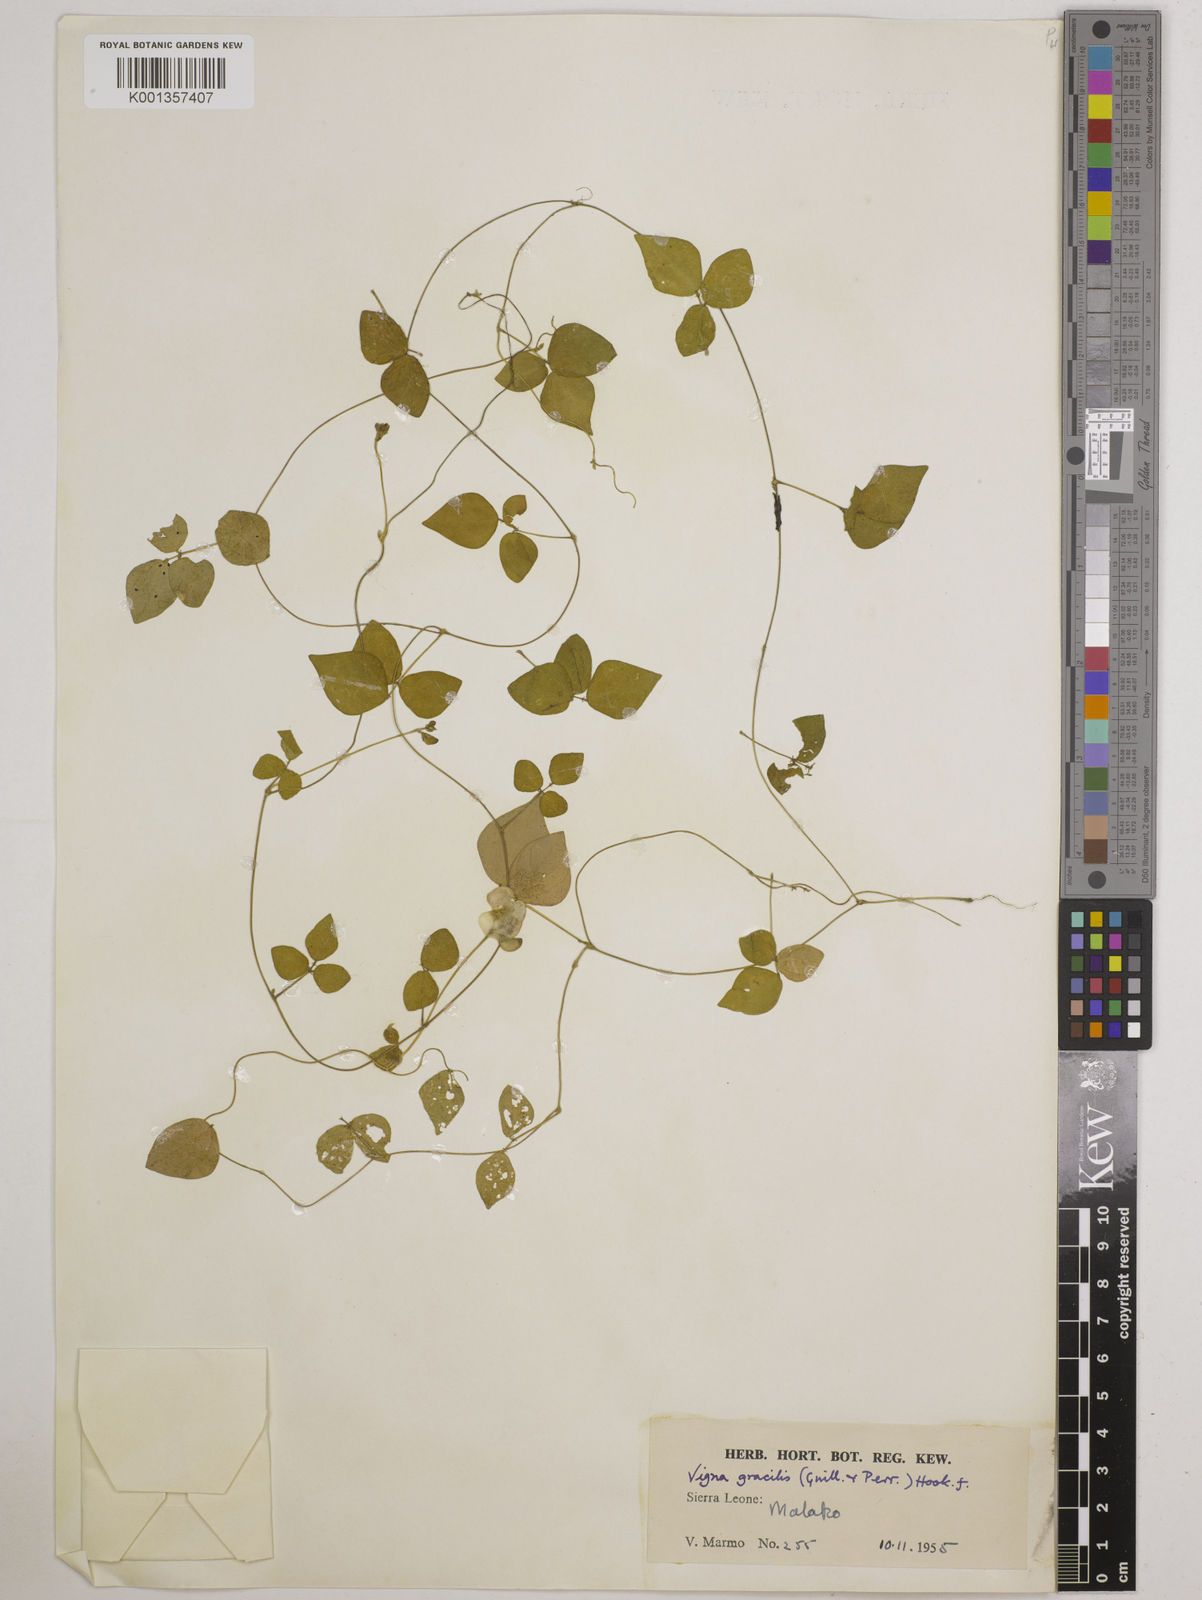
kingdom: Plantae
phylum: Tracheophyta
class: Magnoliopsida
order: Fabales
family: Fabaceae
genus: Vigna
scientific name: Vigna gracilis
